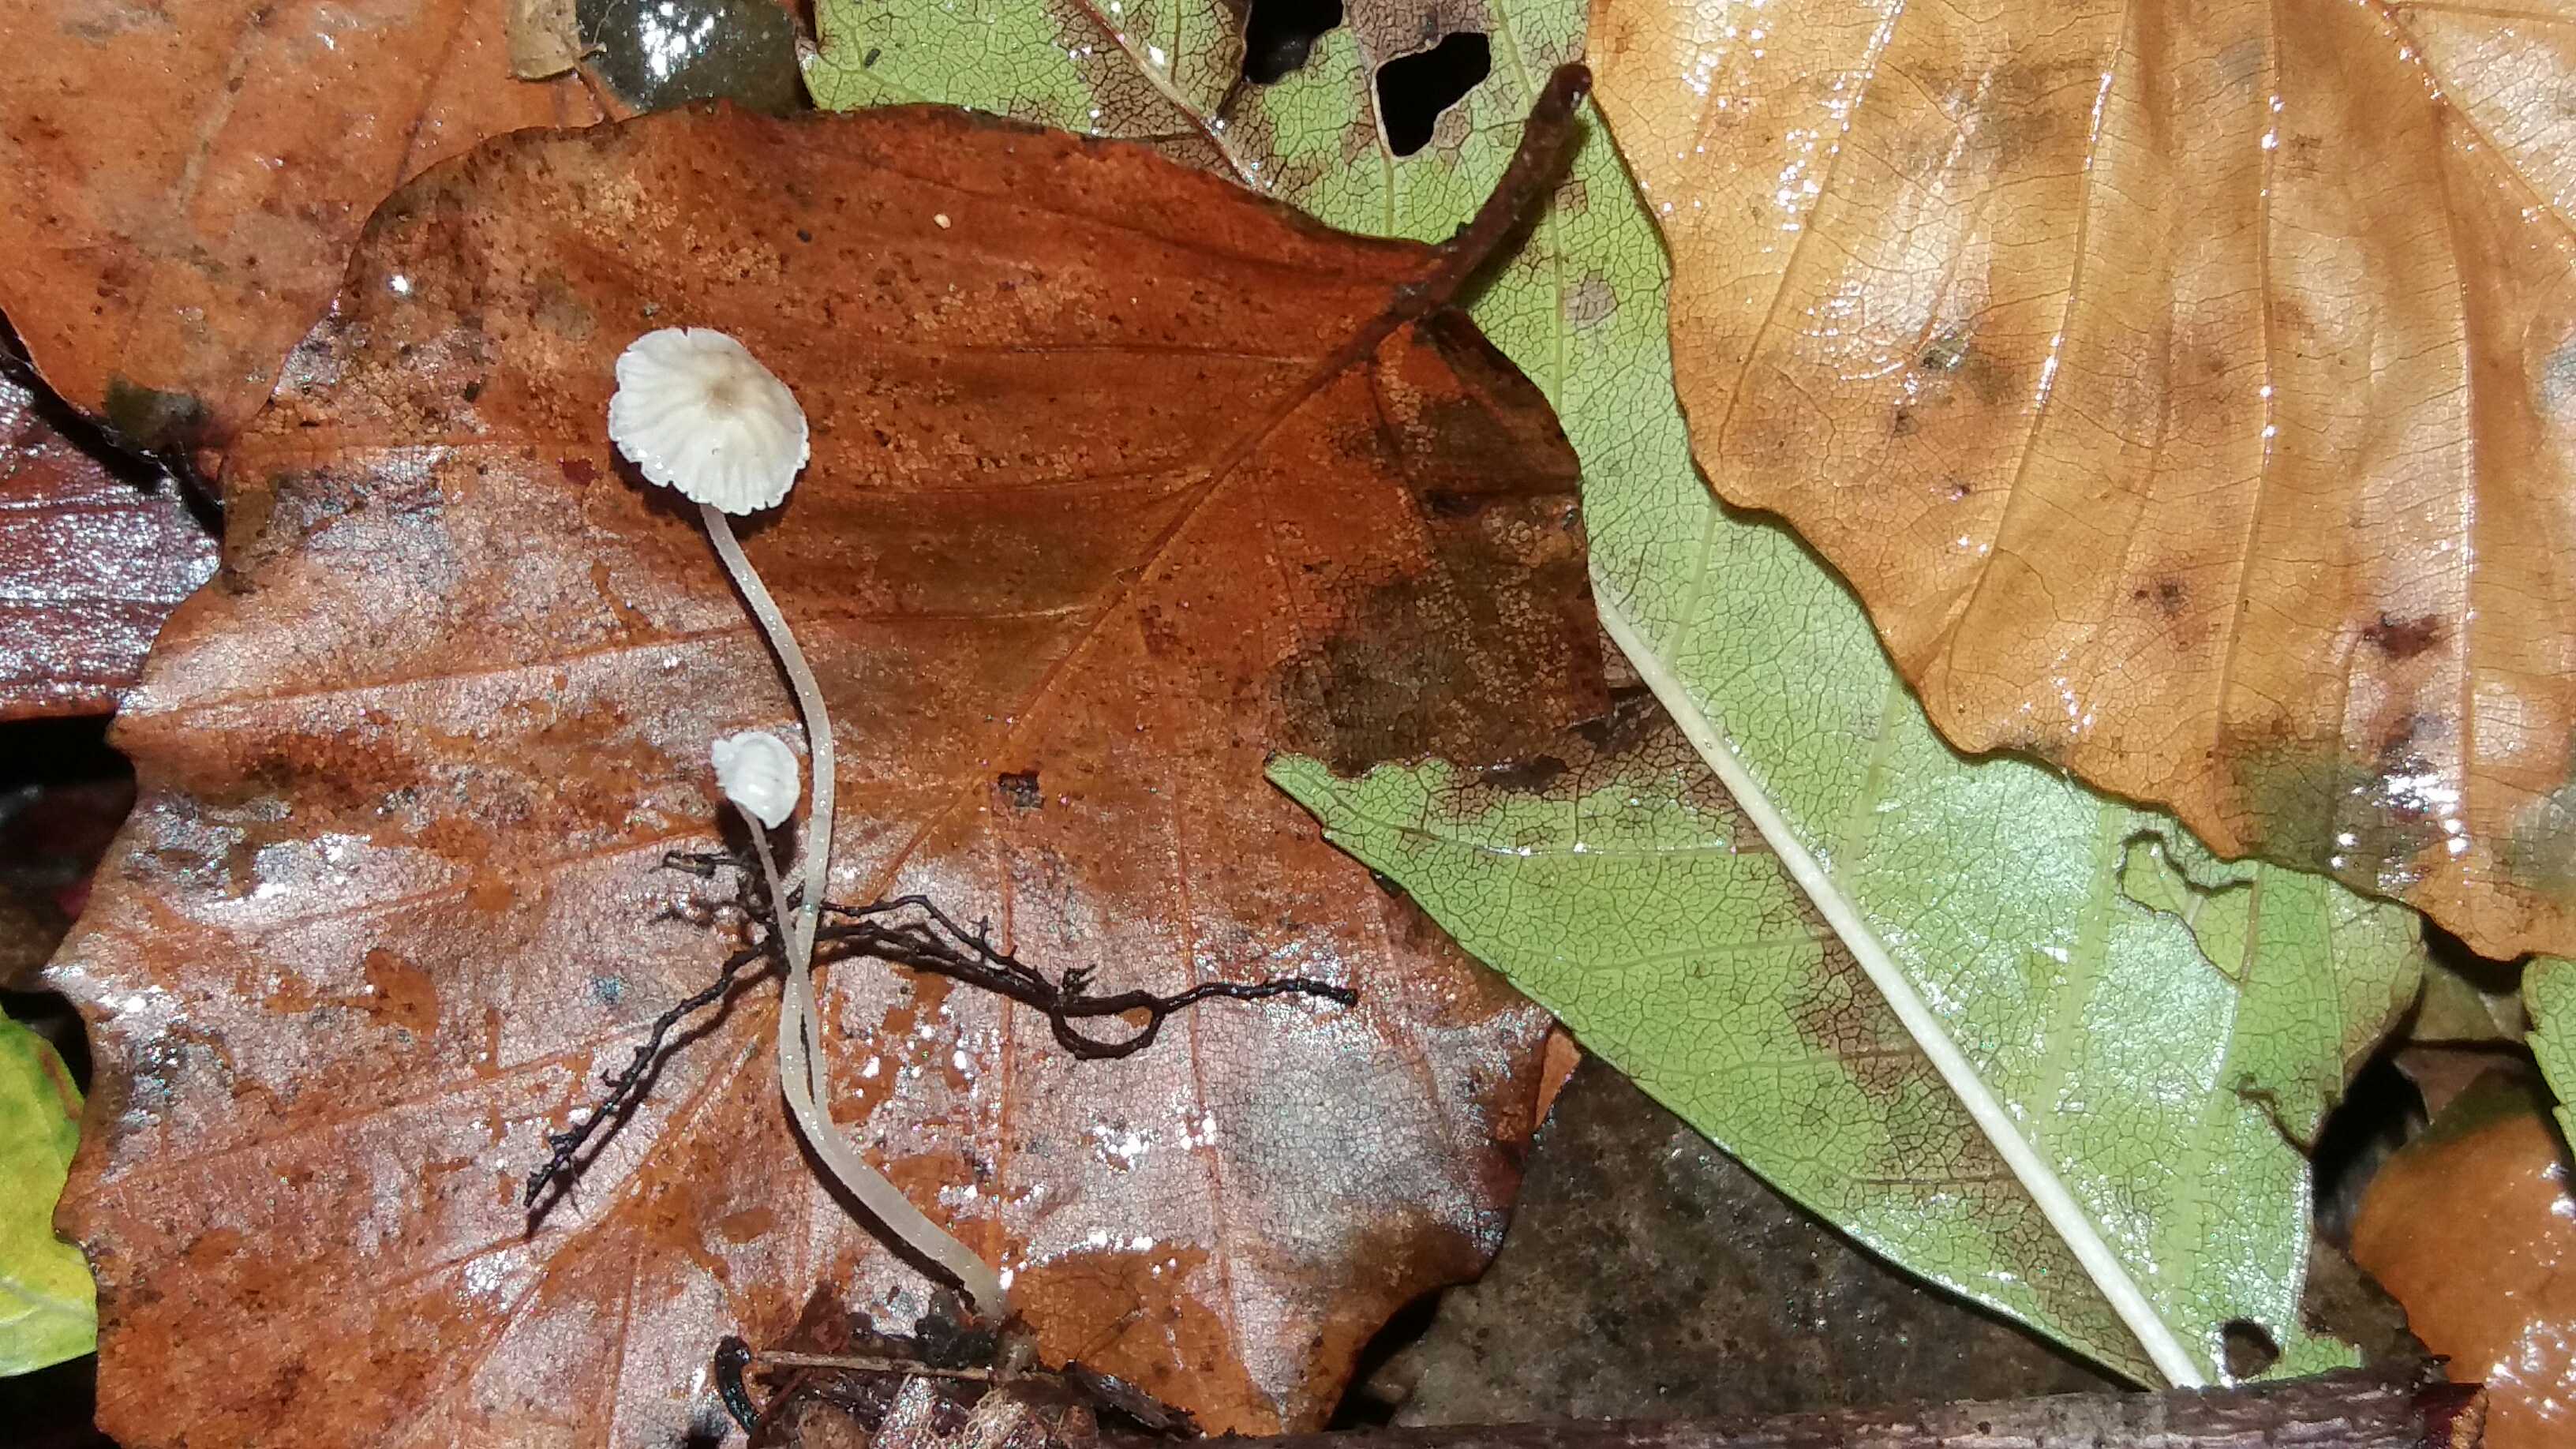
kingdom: Fungi
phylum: Basidiomycota
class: Agaricomycetes
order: Agaricales
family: Porotheleaceae
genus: Phloeomana
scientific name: Phloeomana speirea
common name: kvist-huesvamp
